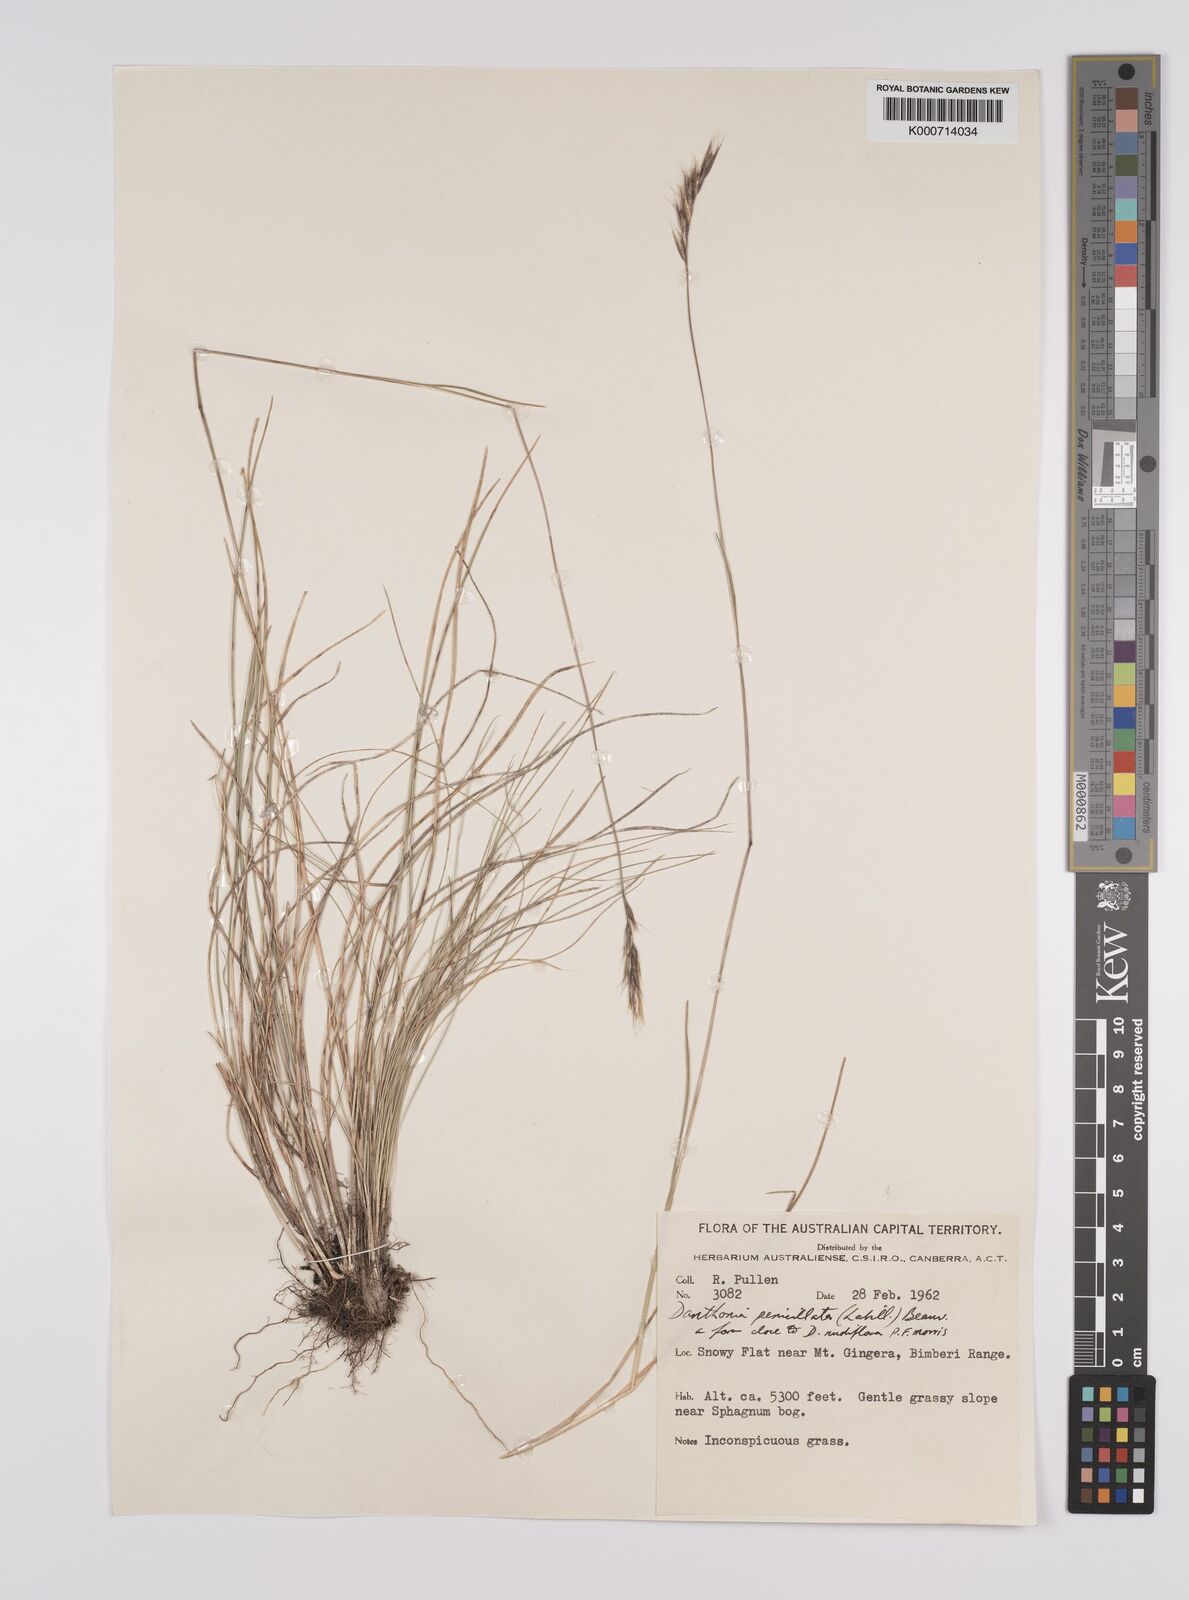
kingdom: Plantae
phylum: Tracheophyta
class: Liliopsida
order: Poales
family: Poaceae
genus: Rytidosperma
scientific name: Rytidosperma penicillatum
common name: Hairy wallaby grass
